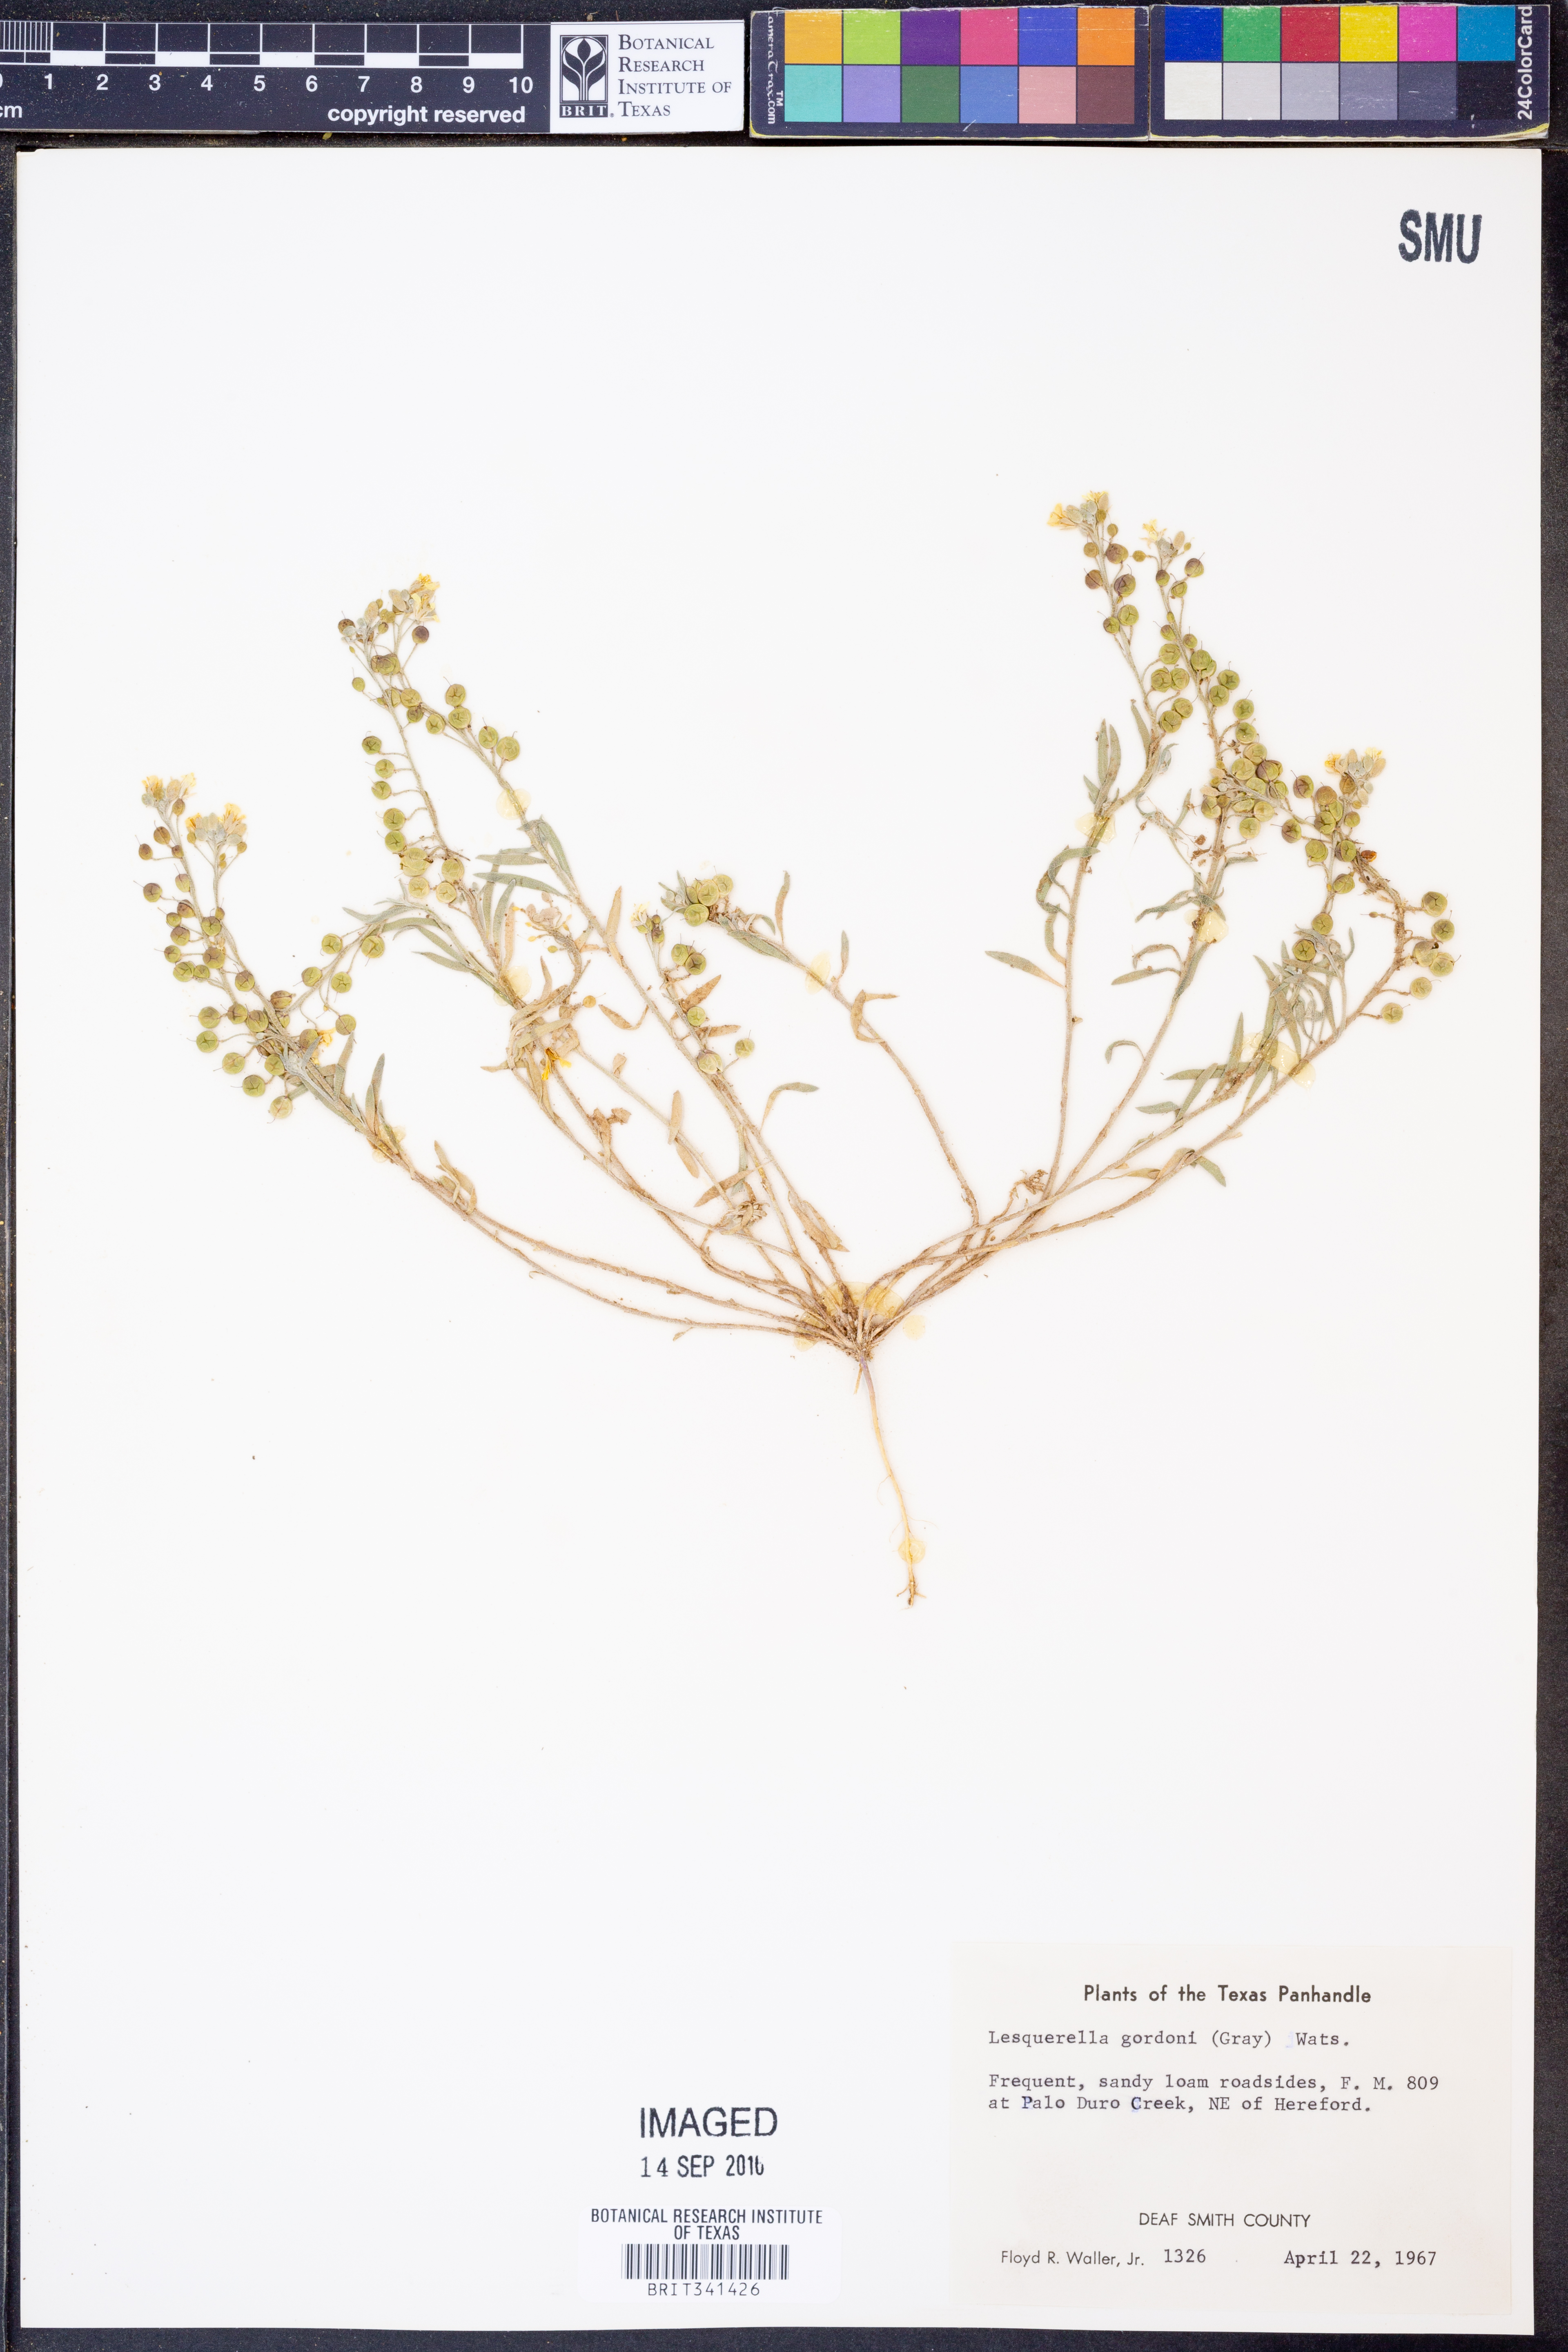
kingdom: Plantae
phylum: Tracheophyta
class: Magnoliopsida
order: Brassicales
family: Brassicaceae
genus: Physaria
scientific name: Physaria gordonii
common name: Gordon's bladderpod
